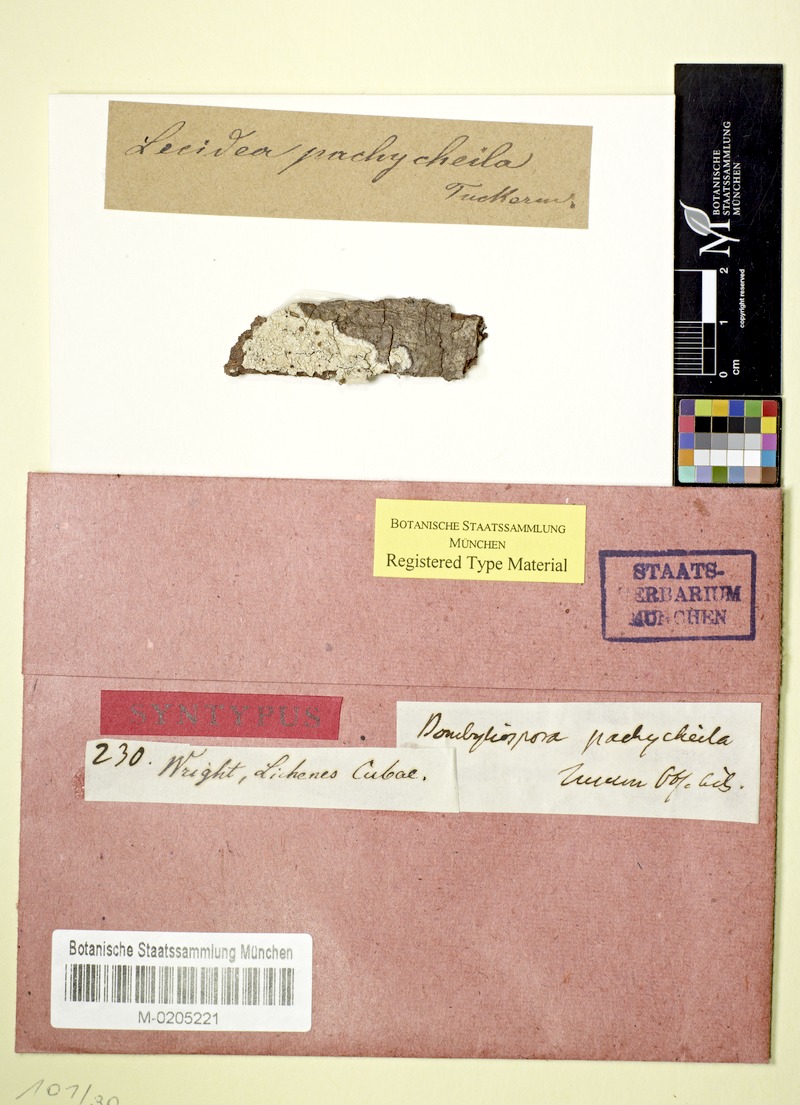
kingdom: Fungi
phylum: Ascomycota
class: Lecanoromycetes
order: Teloschistales
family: Megalosporaceae
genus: Megalospora
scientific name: Megalospora pachycheila
